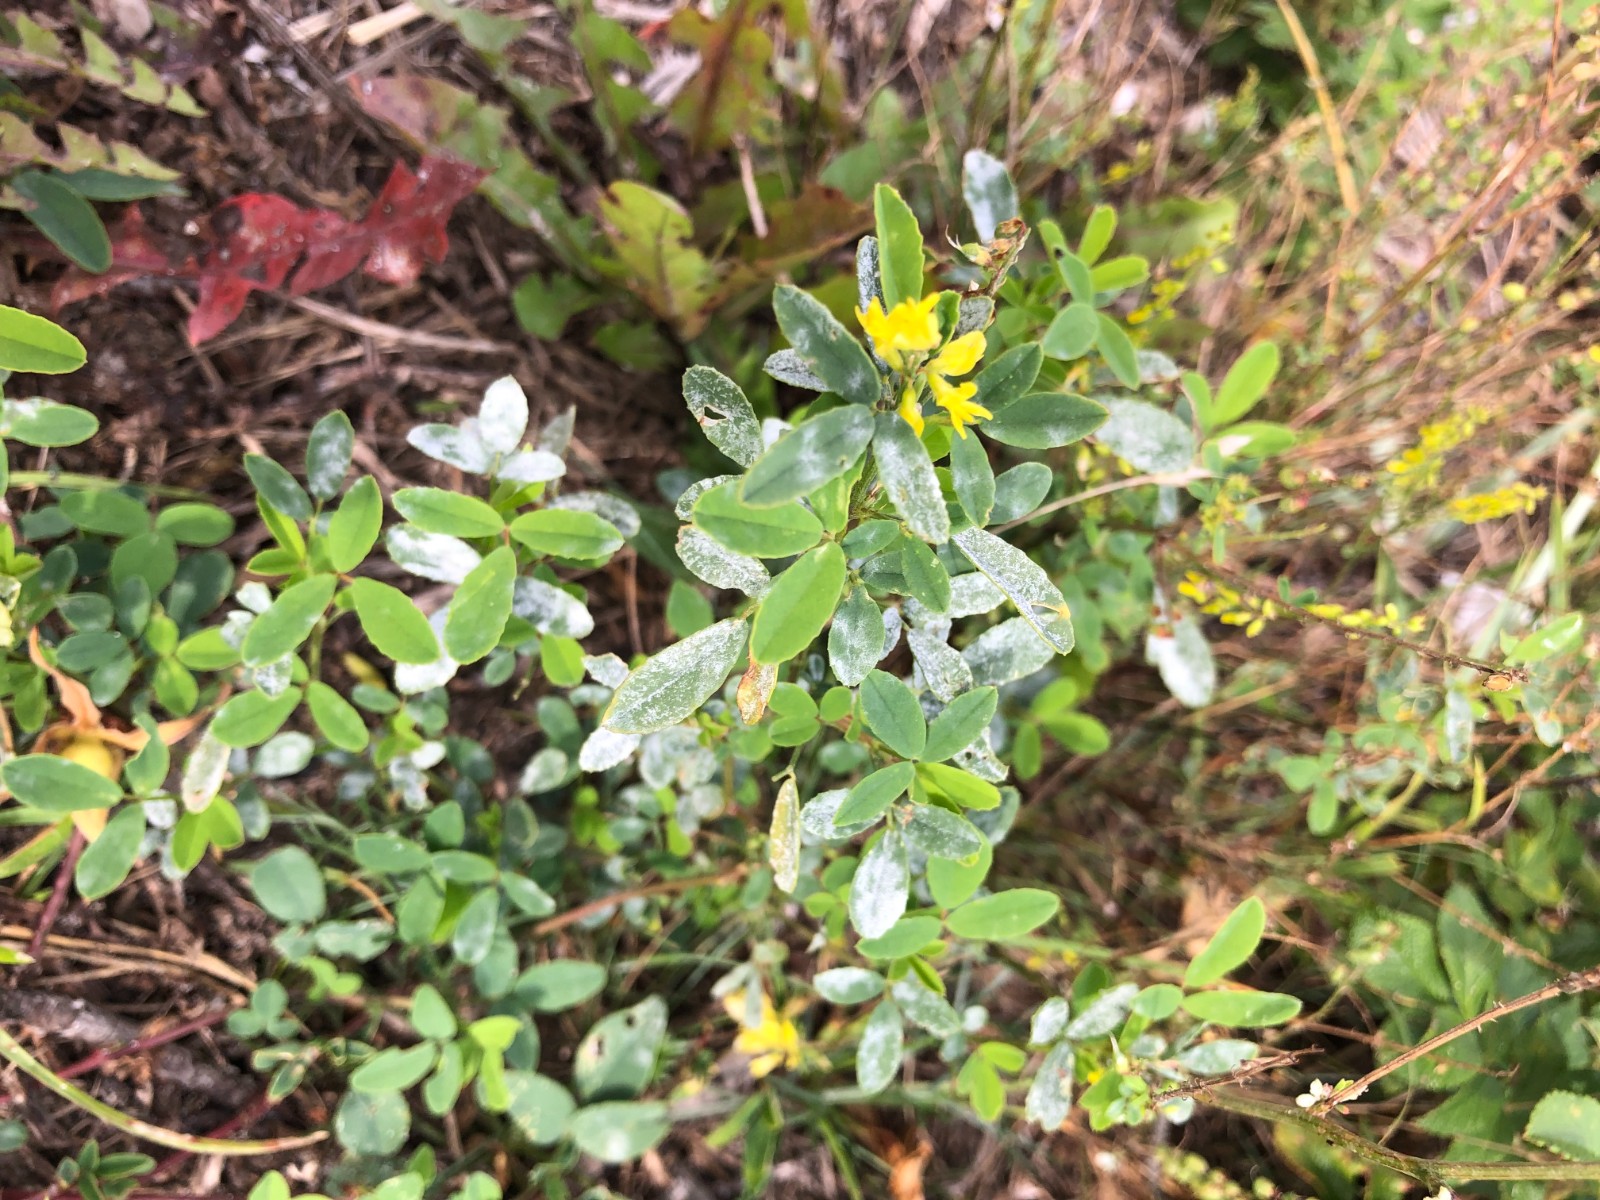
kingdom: Fungi
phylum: Ascomycota
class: Leotiomycetes
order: Helotiales
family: Erysiphaceae
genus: Erysiphe
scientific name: Erysiphe
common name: meldug
